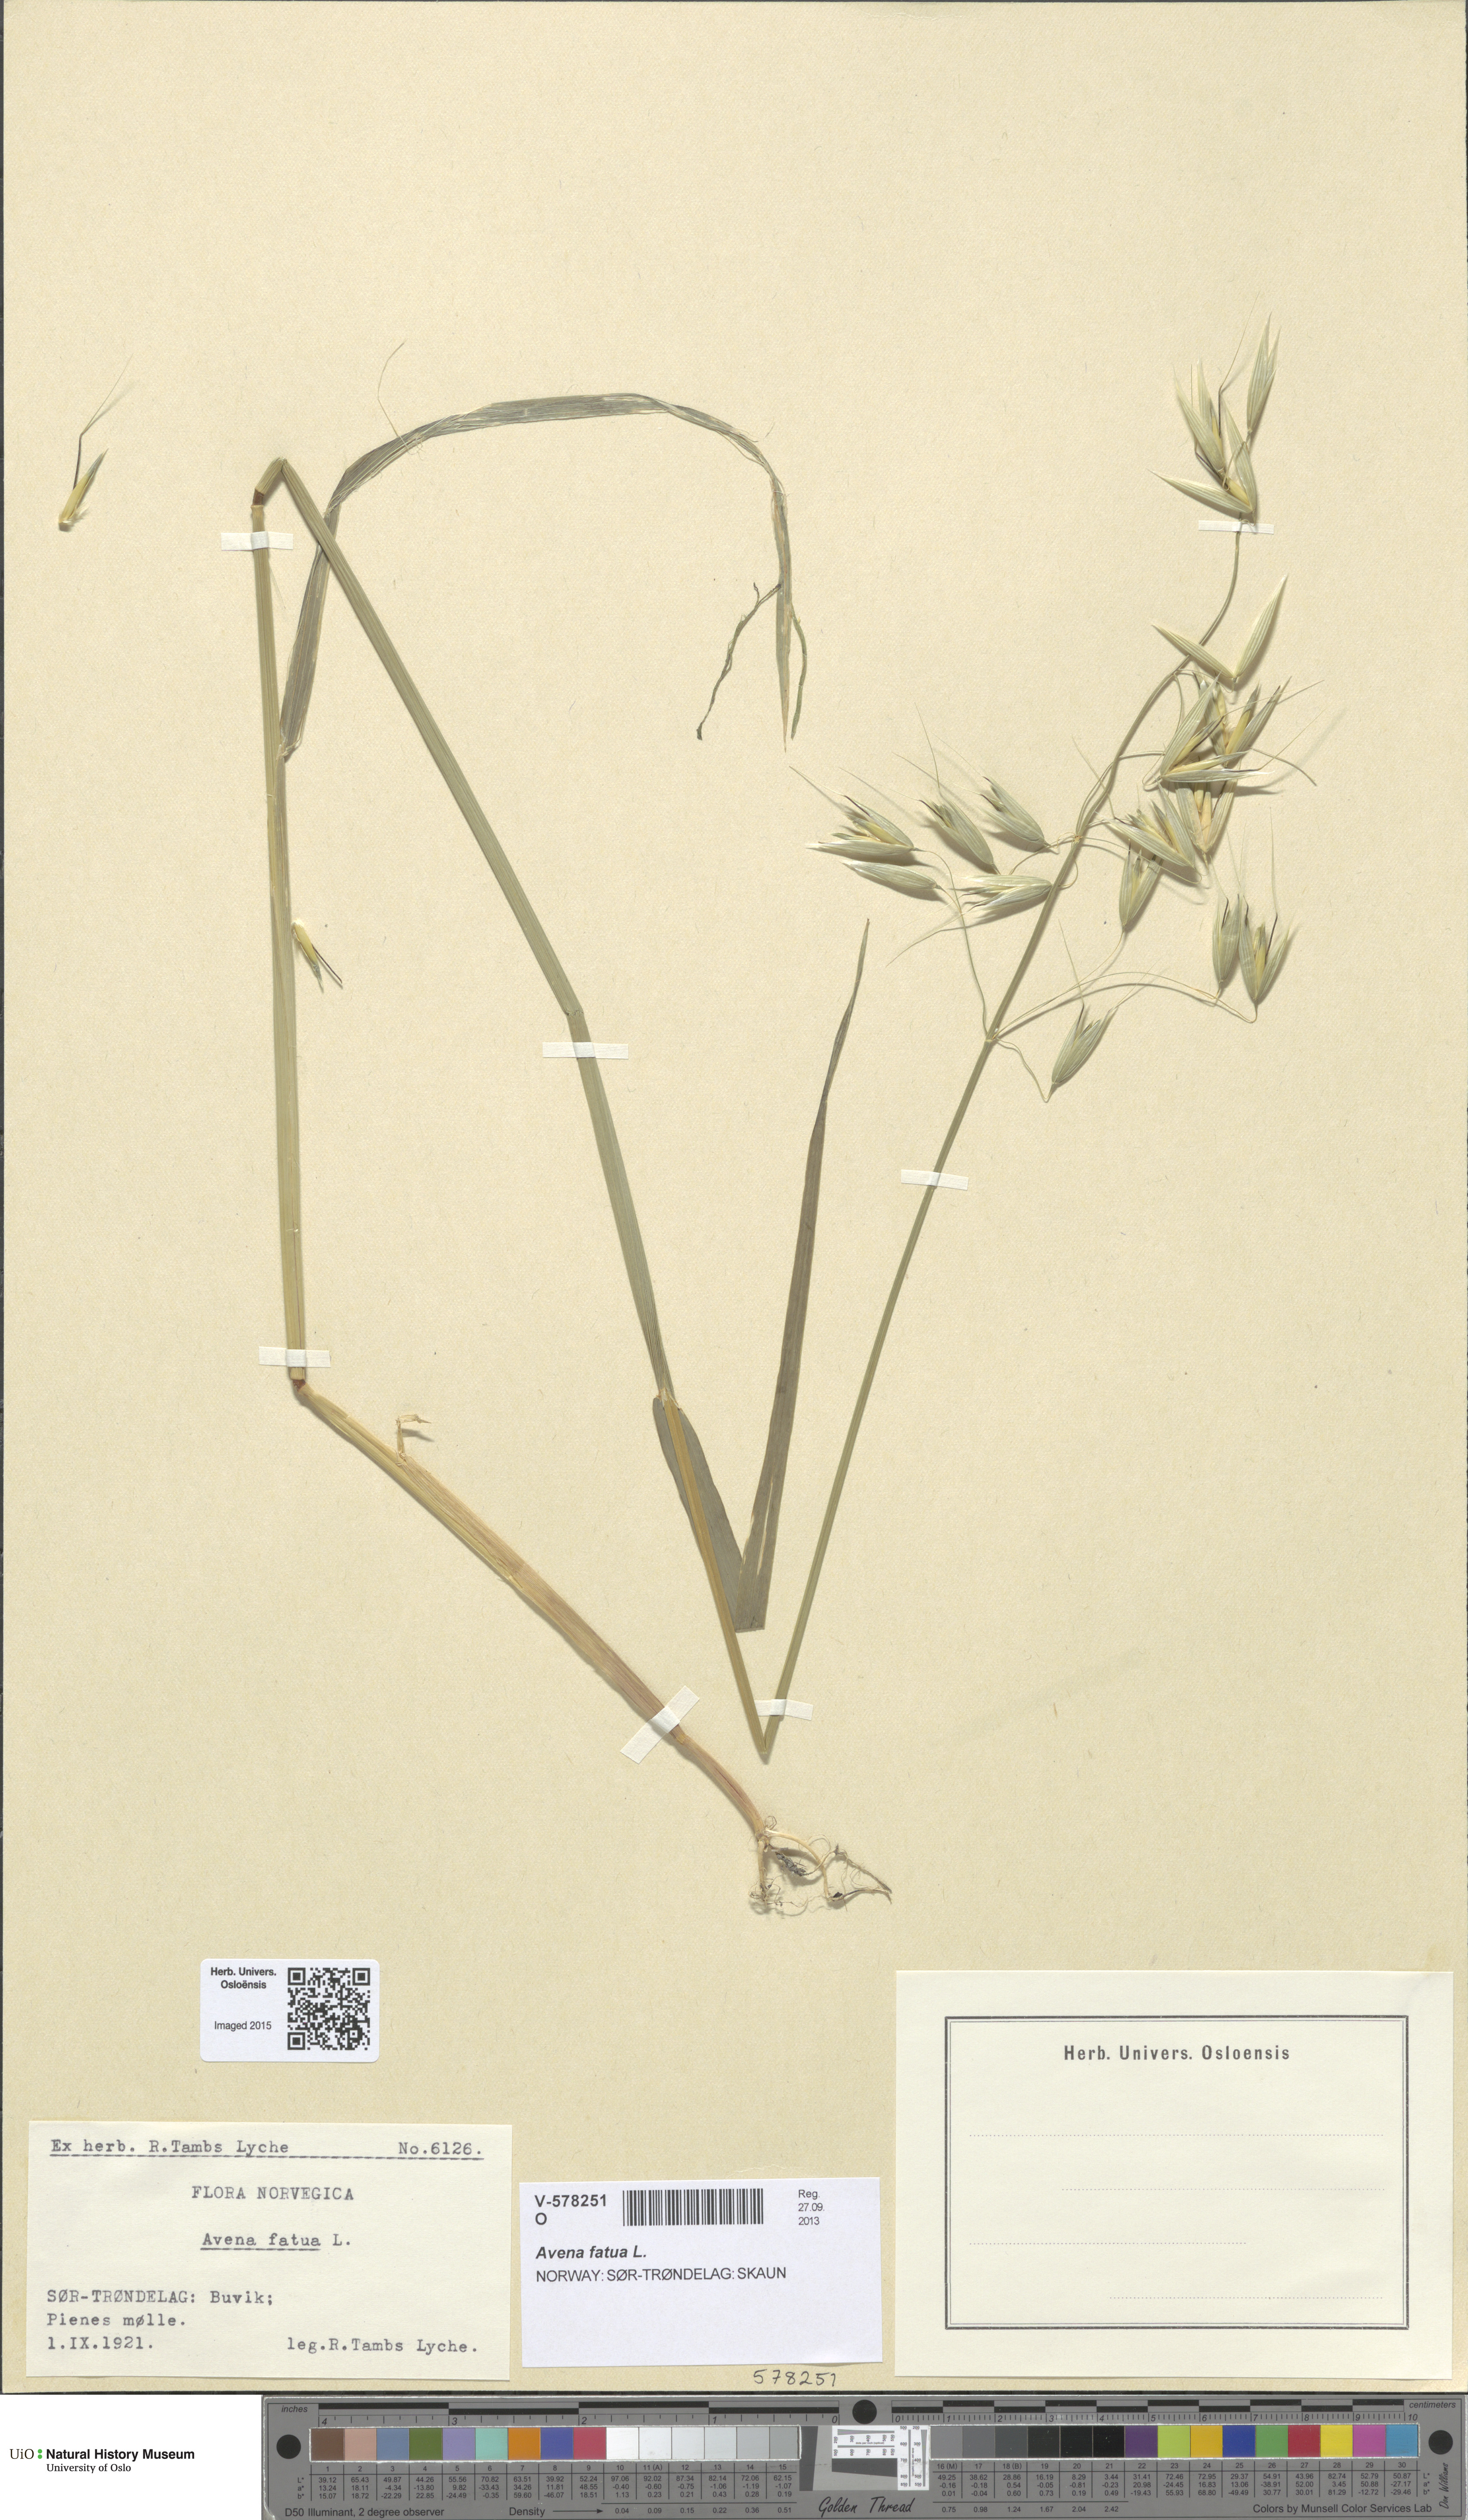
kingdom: Plantae
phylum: Tracheophyta
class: Liliopsida
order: Poales
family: Poaceae
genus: Avena
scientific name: Avena fatua
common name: Wild oat
